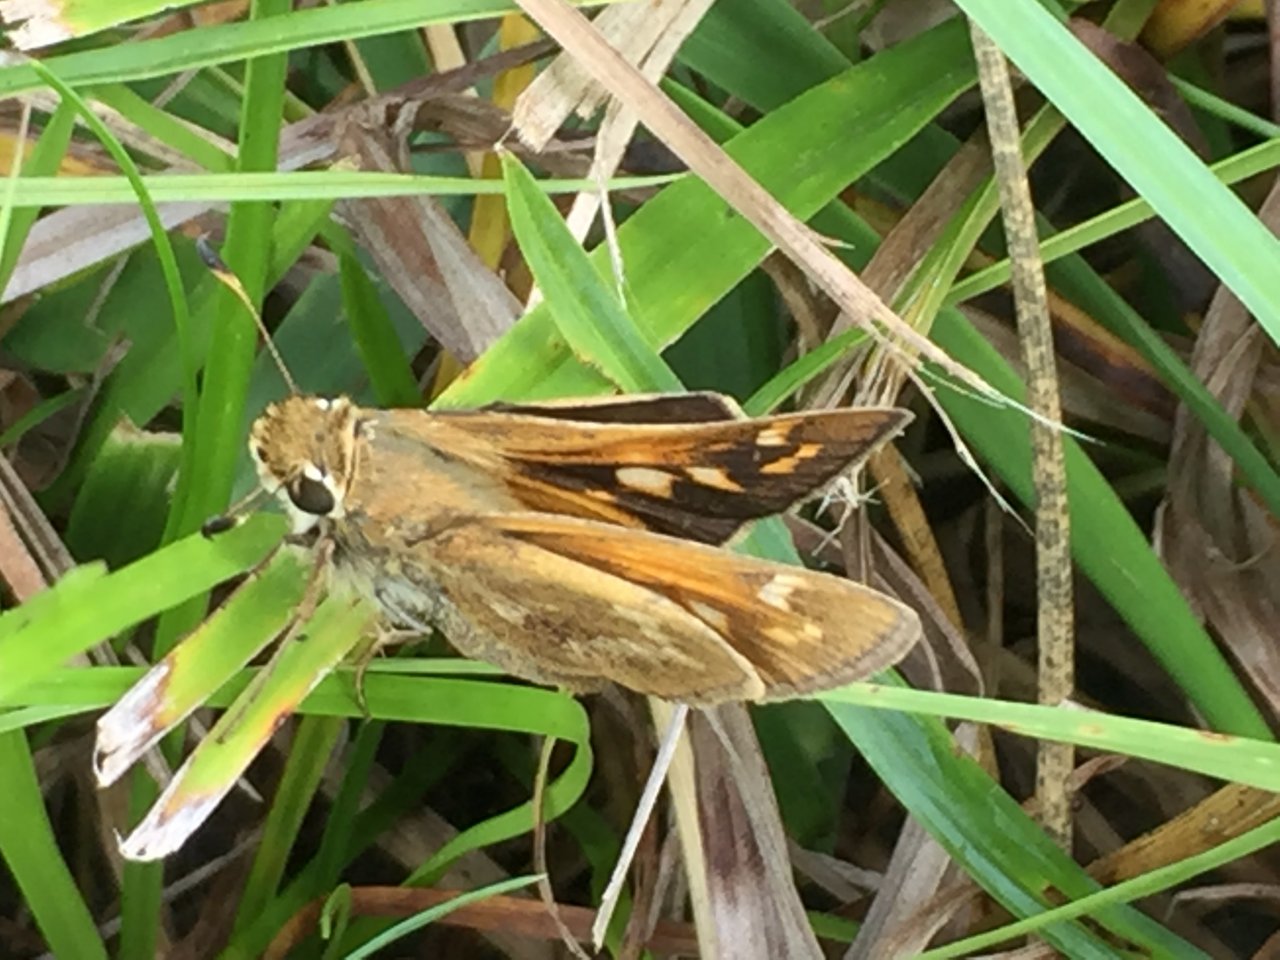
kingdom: Animalia
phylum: Arthropoda
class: Insecta
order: Lepidoptera
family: Hesperiidae
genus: Atalopedes
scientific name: Atalopedes campestris
